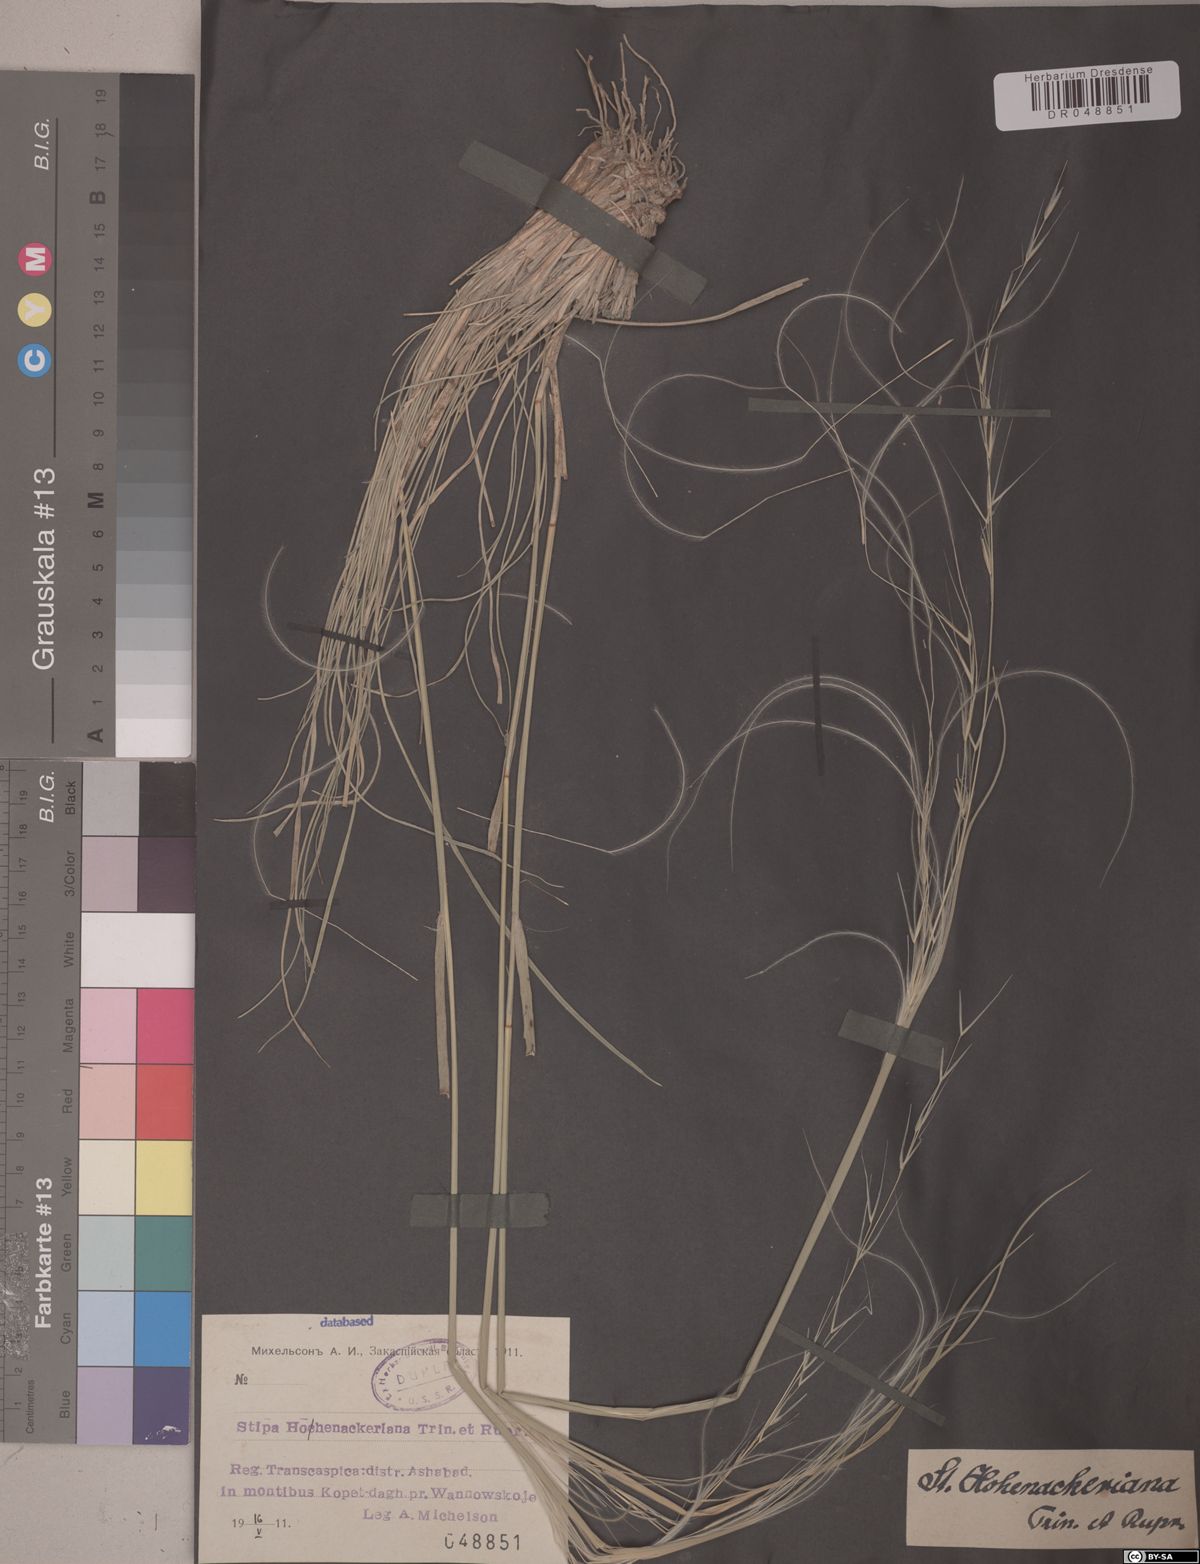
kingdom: Plantae
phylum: Tracheophyta
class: Liliopsida
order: Poales
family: Poaceae
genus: Stipa
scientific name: Stipa hohenackeriana
